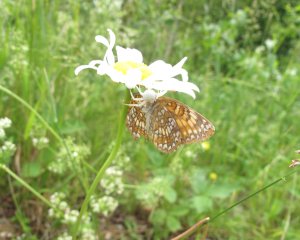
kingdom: Animalia
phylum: Arthropoda
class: Insecta
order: Lepidoptera
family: Nymphalidae
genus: Chlosyne
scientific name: Chlosyne harrisii
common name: Harris's Checkerspot
